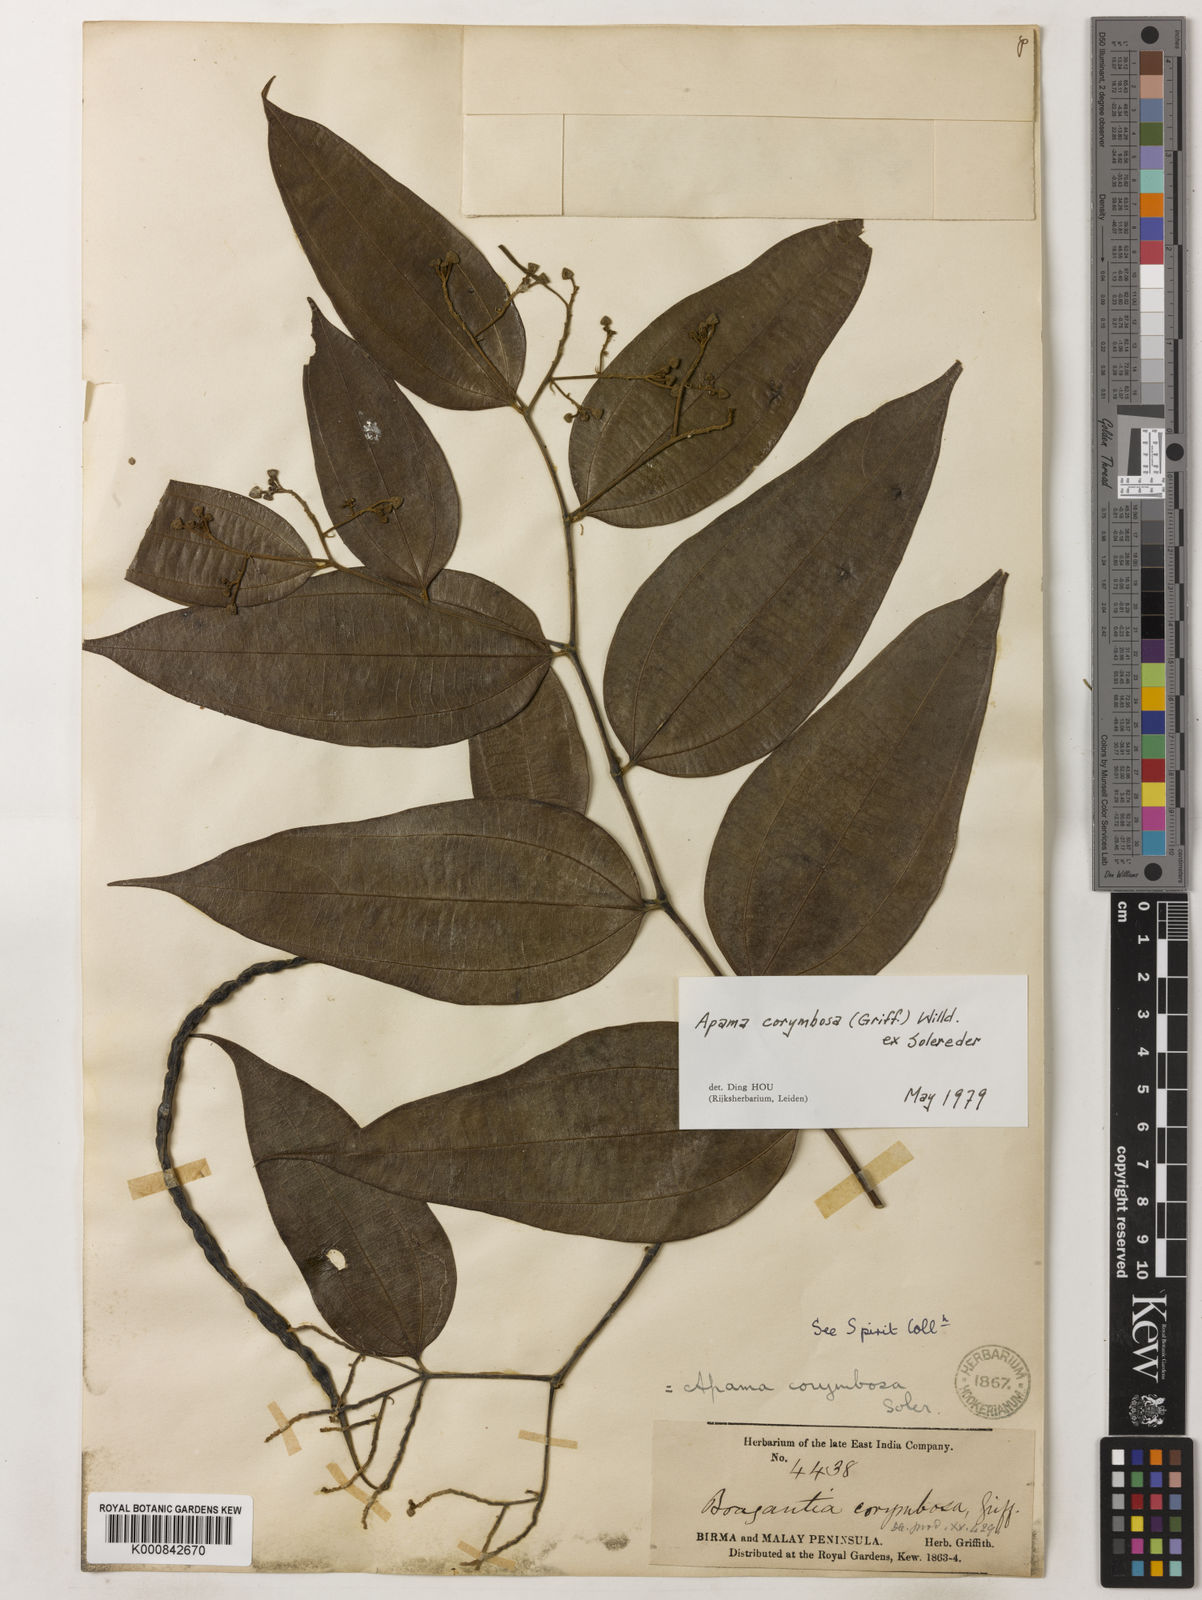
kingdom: Plantae
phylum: Tracheophyta
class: Magnoliopsida
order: Piperales
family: Aristolochiaceae
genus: Thottea
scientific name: Thottea piperiformis
